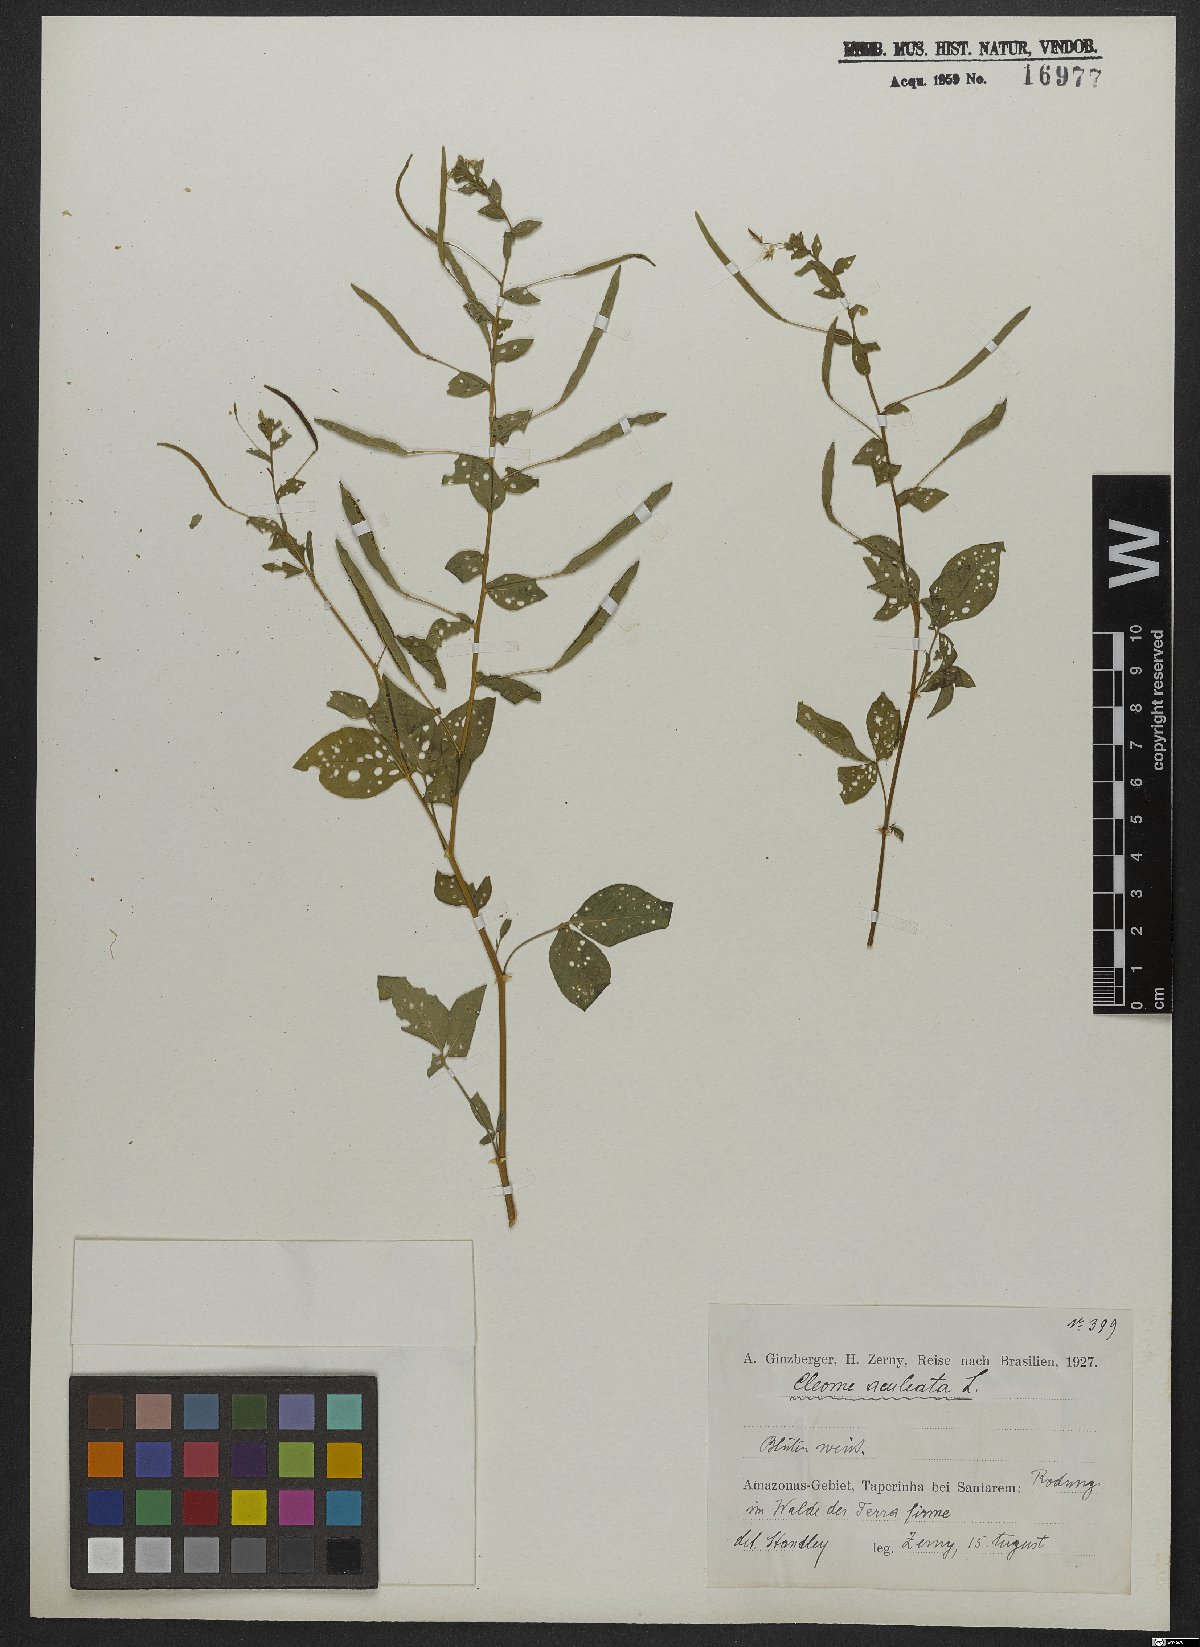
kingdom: Plantae
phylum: Tracheophyta
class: Magnoliopsida
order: Brassicales
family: Cleomaceae
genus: Tarenaya
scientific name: Tarenaya aculeata
